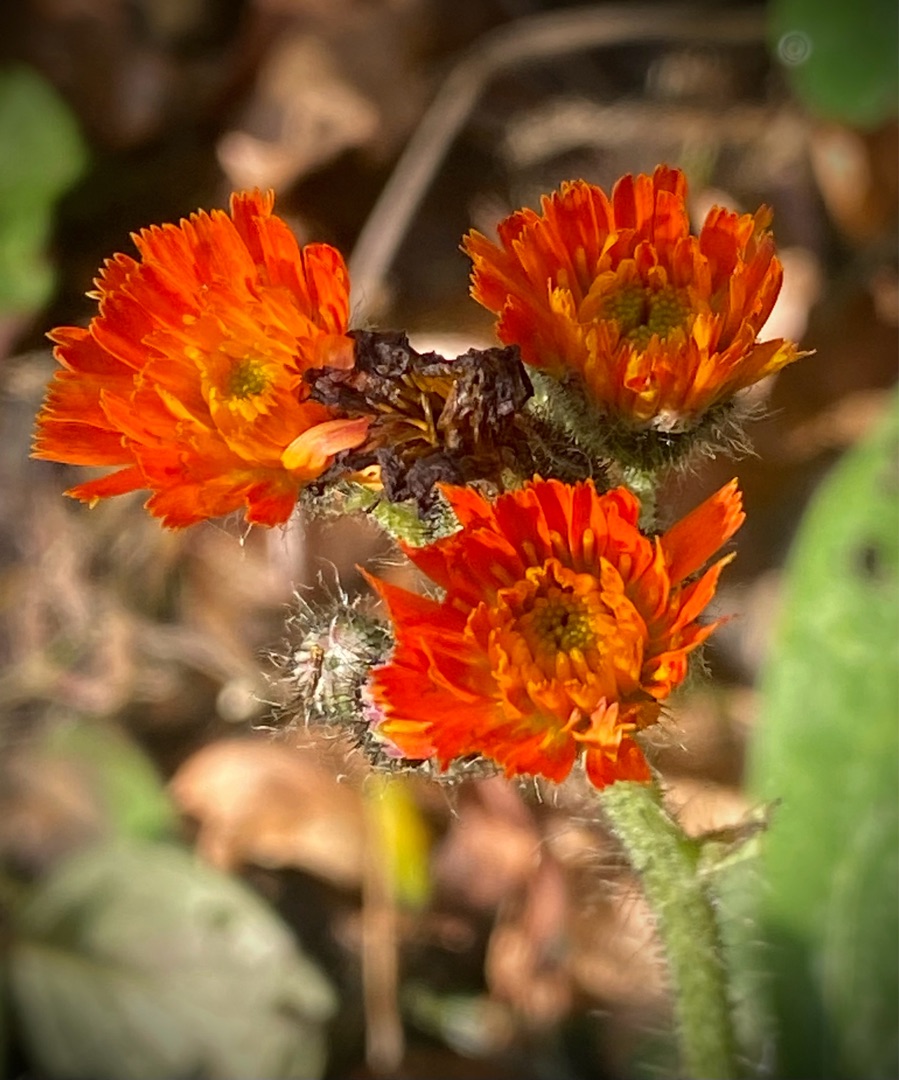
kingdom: Plantae
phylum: Tracheophyta
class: Magnoliopsida
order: Asterales
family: Asteraceae
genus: Pilosella
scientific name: Pilosella aurantiaca
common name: Pomerans-høgeurt
